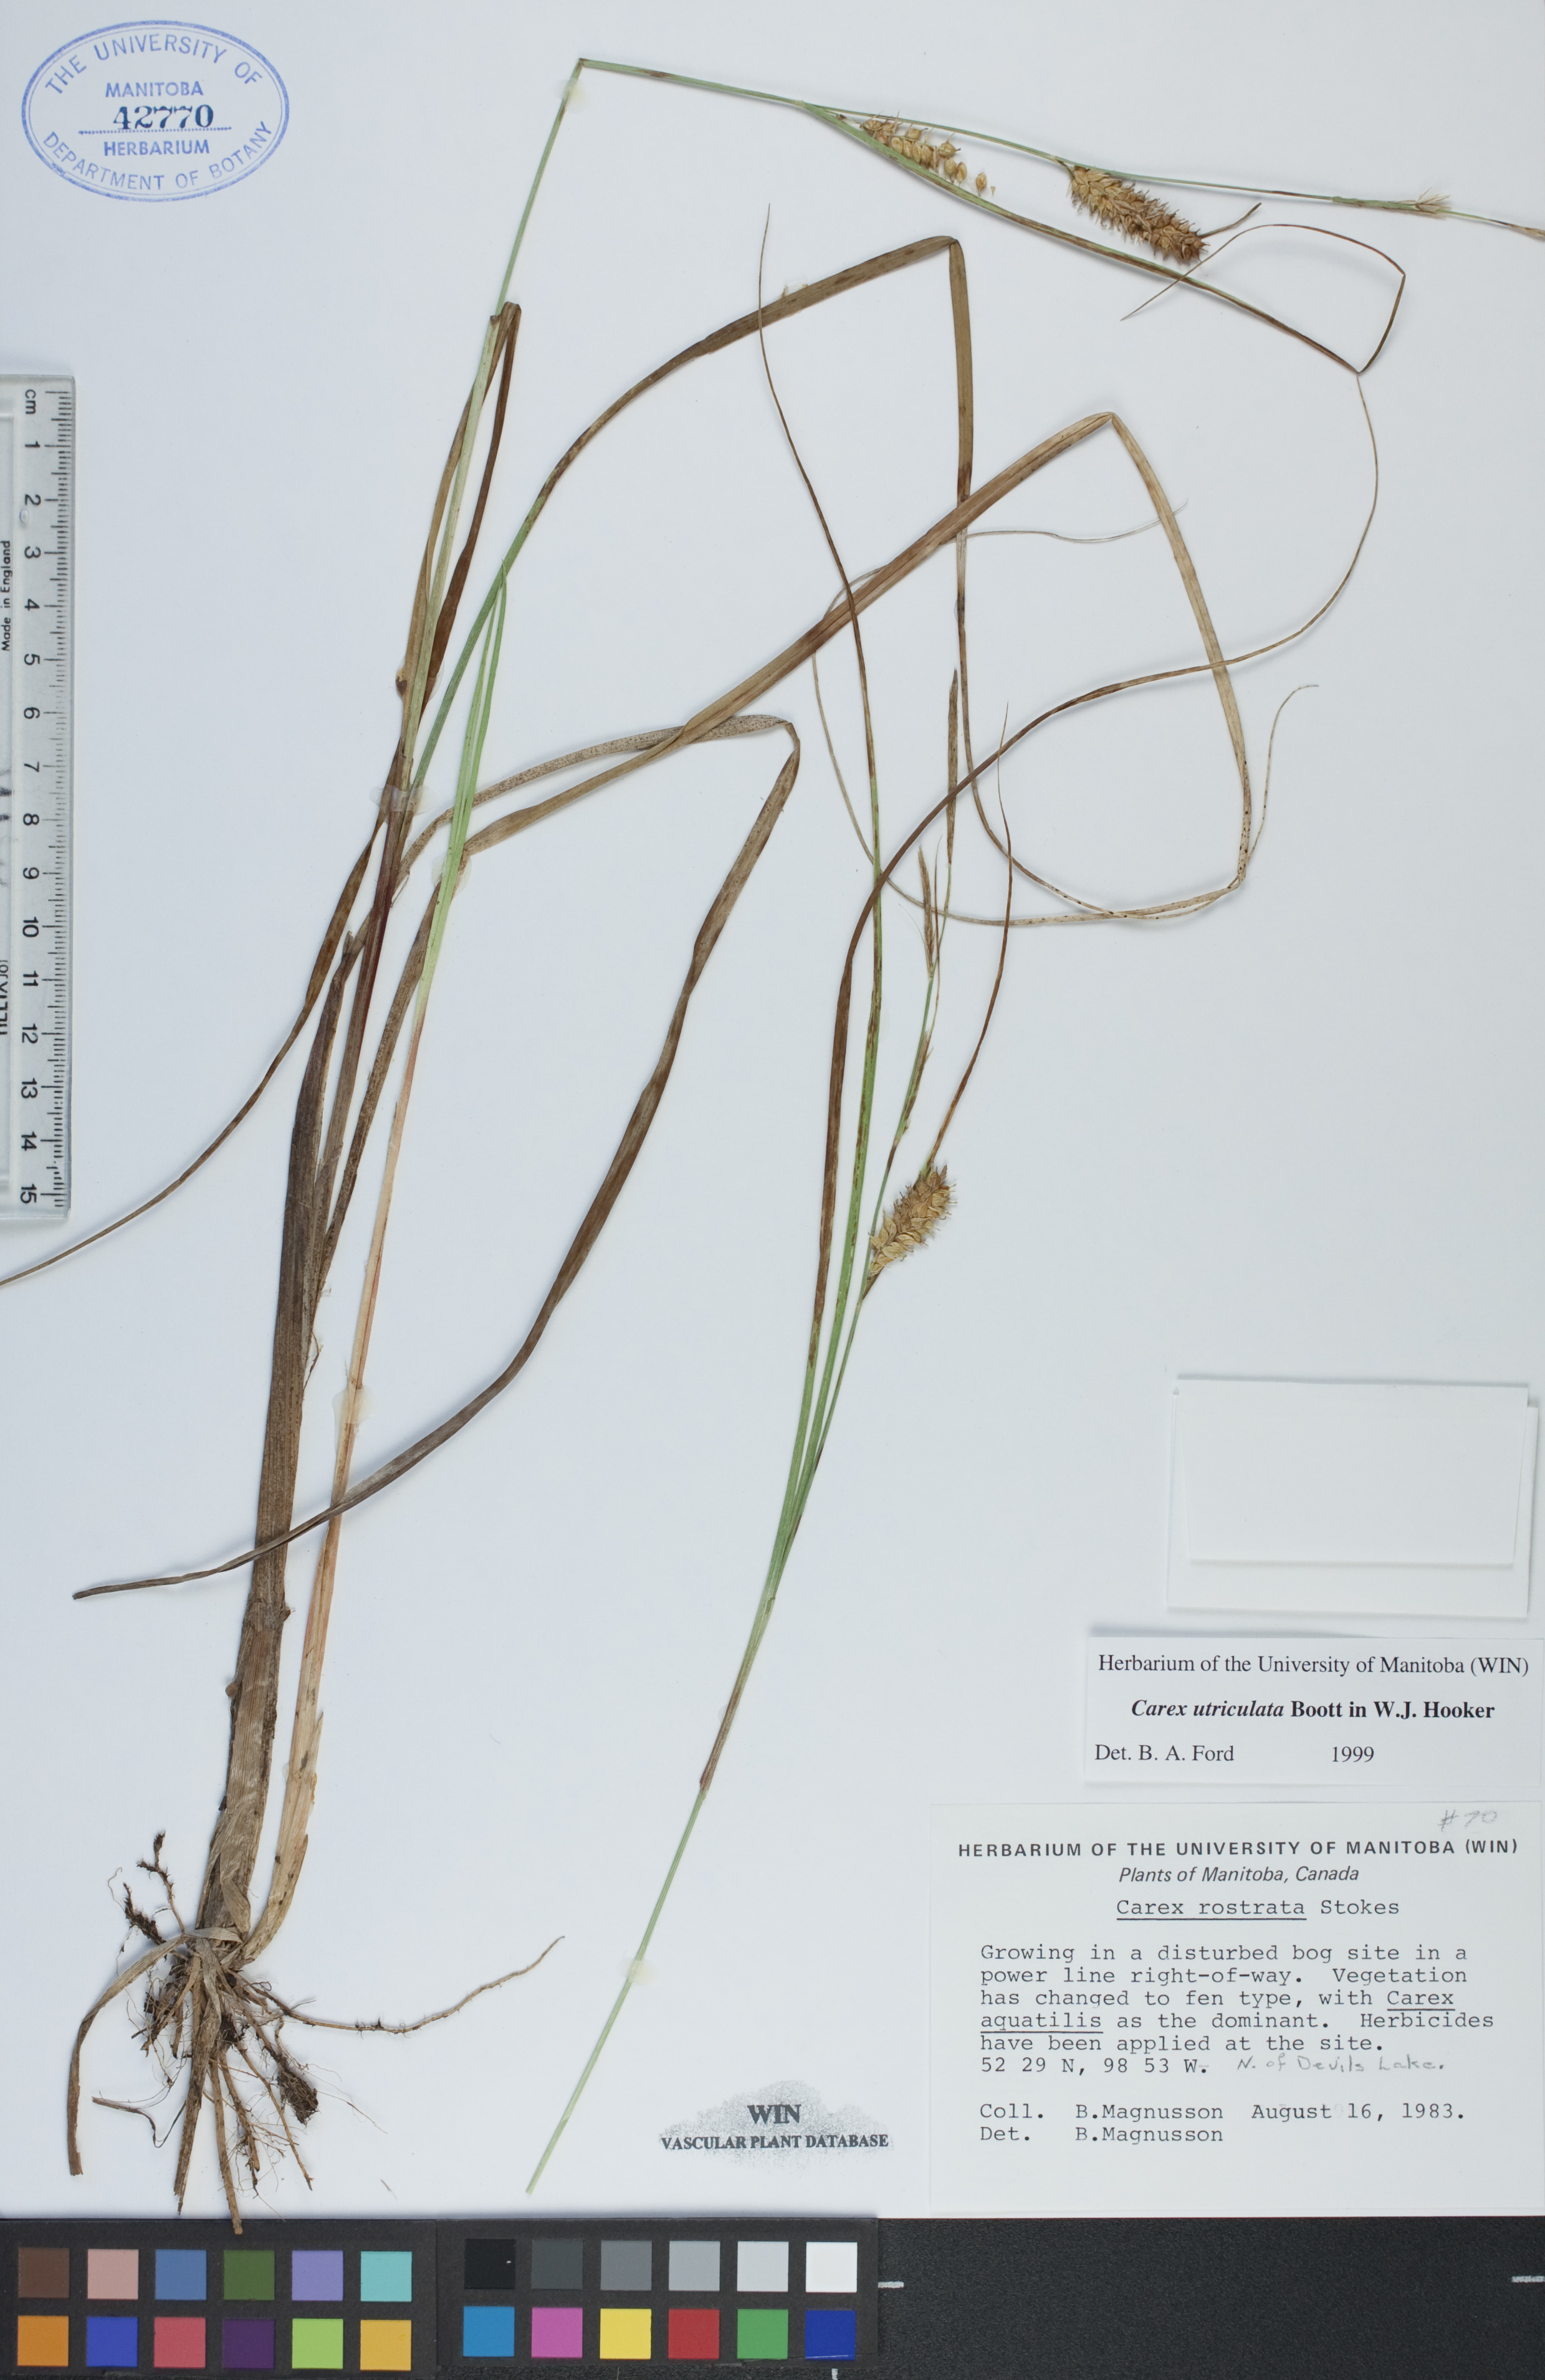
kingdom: Plantae
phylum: Tracheophyta
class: Liliopsida
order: Poales
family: Cyperaceae
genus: Carex
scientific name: Carex utriculata
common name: Beaked sedge
